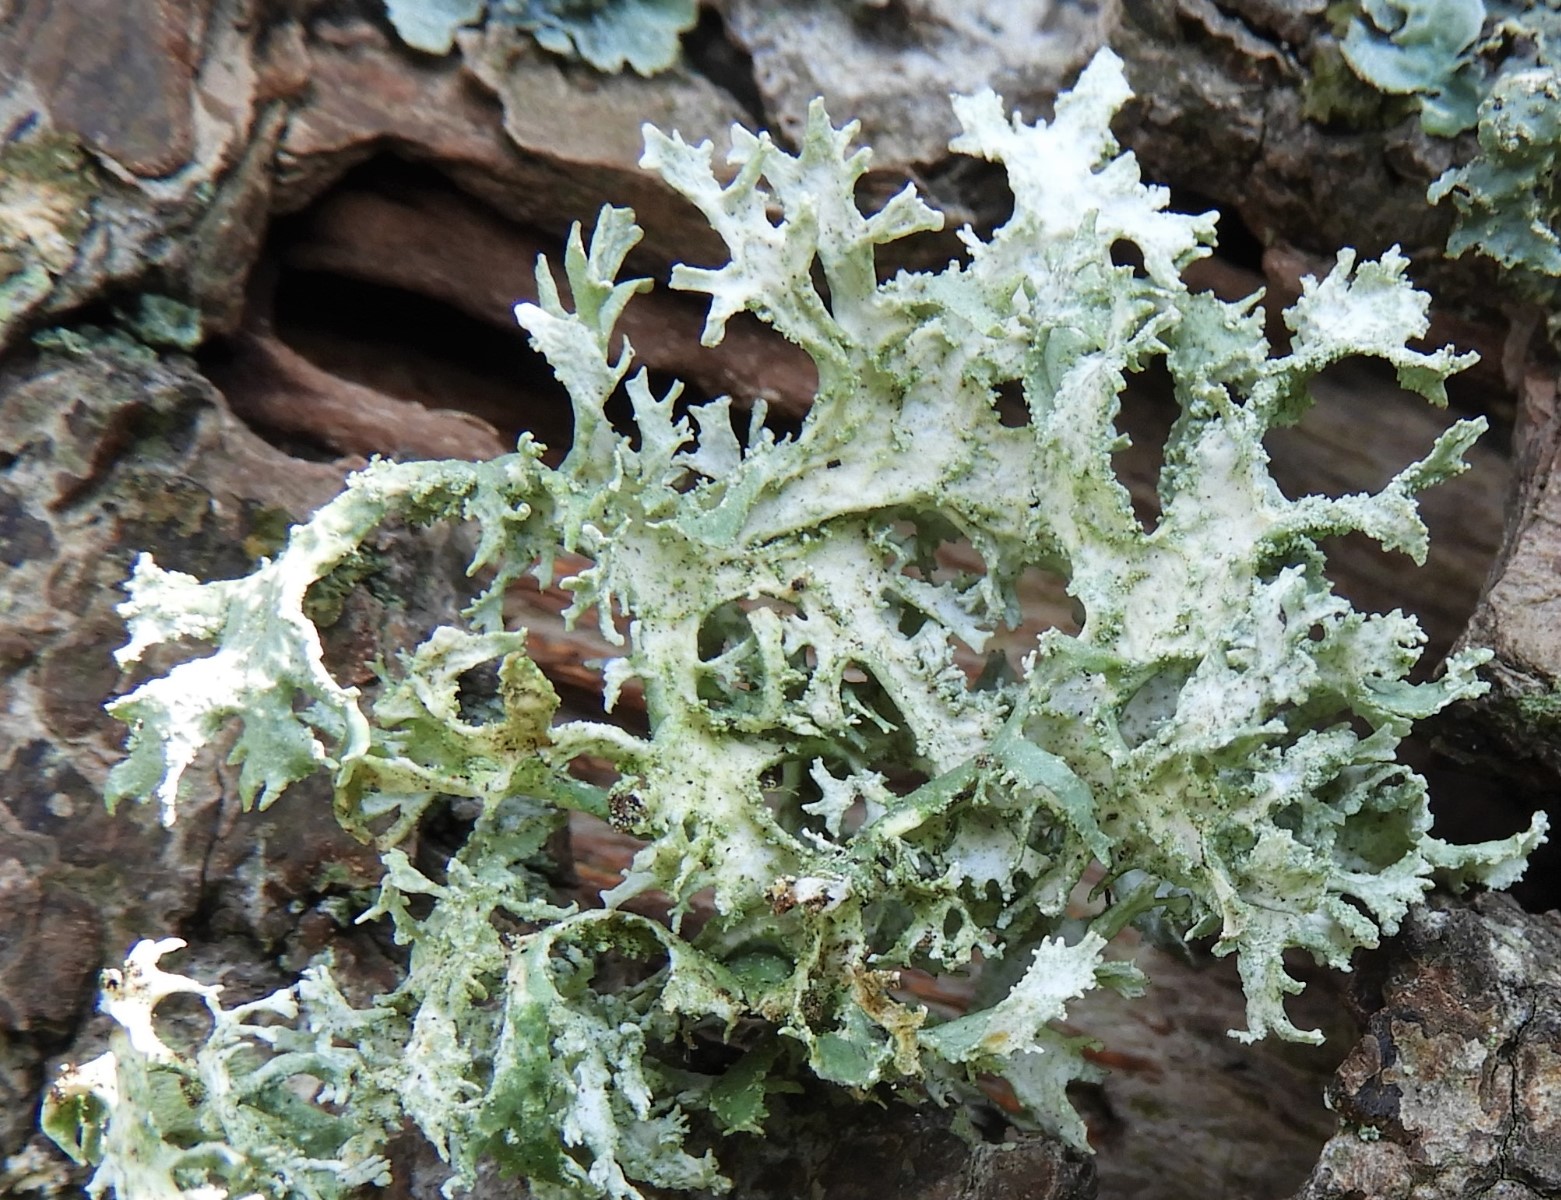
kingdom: Fungi
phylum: Ascomycota
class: Lecanoromycetes
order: Lecanorales
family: Parmeliaceae
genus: Evernia
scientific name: Evernia prunastri
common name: almindelig slåenlav
